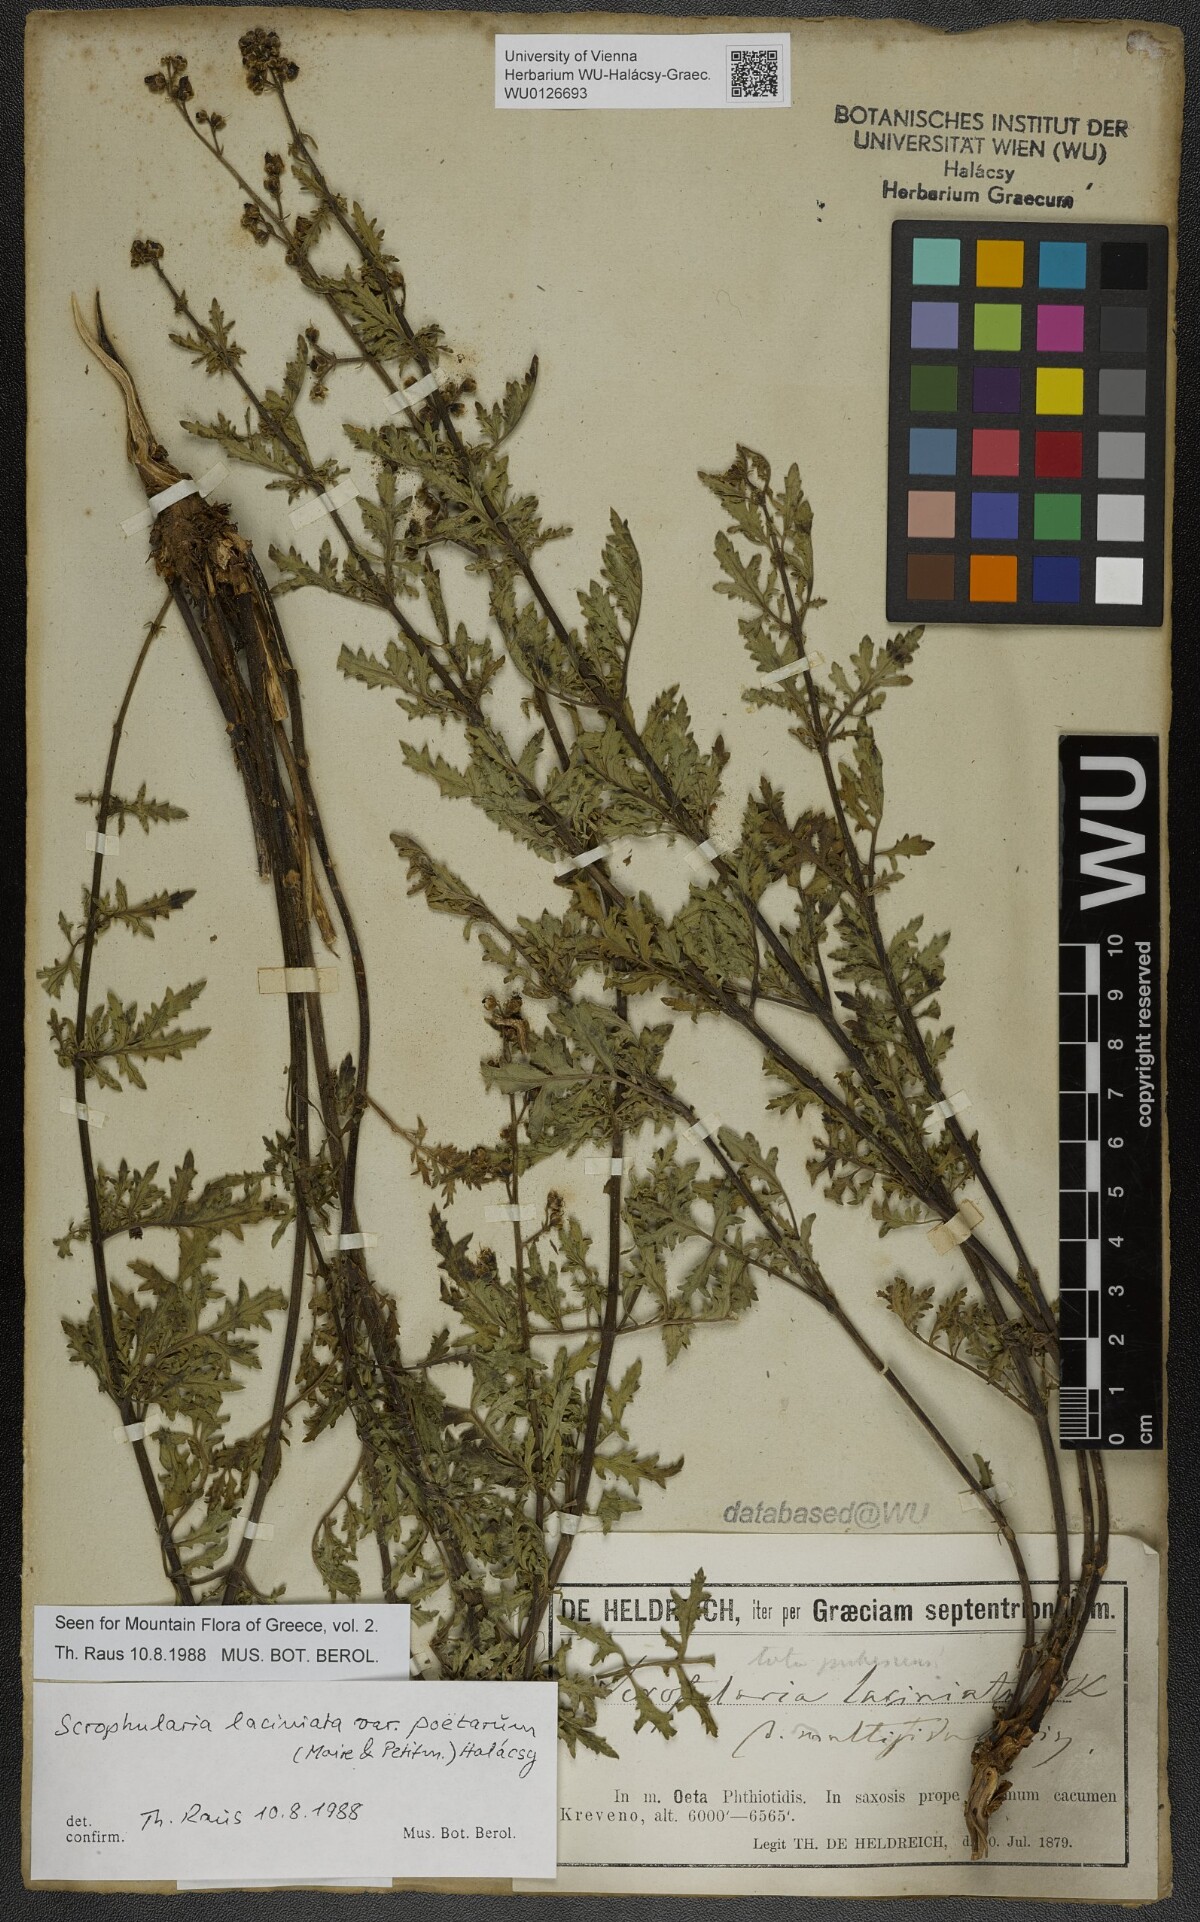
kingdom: Plantae
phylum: Tracheophyta
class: Magnoliopsida
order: Lamiales
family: Scrophulariaceae
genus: Scrophularia
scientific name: Scrophularia laciniata
